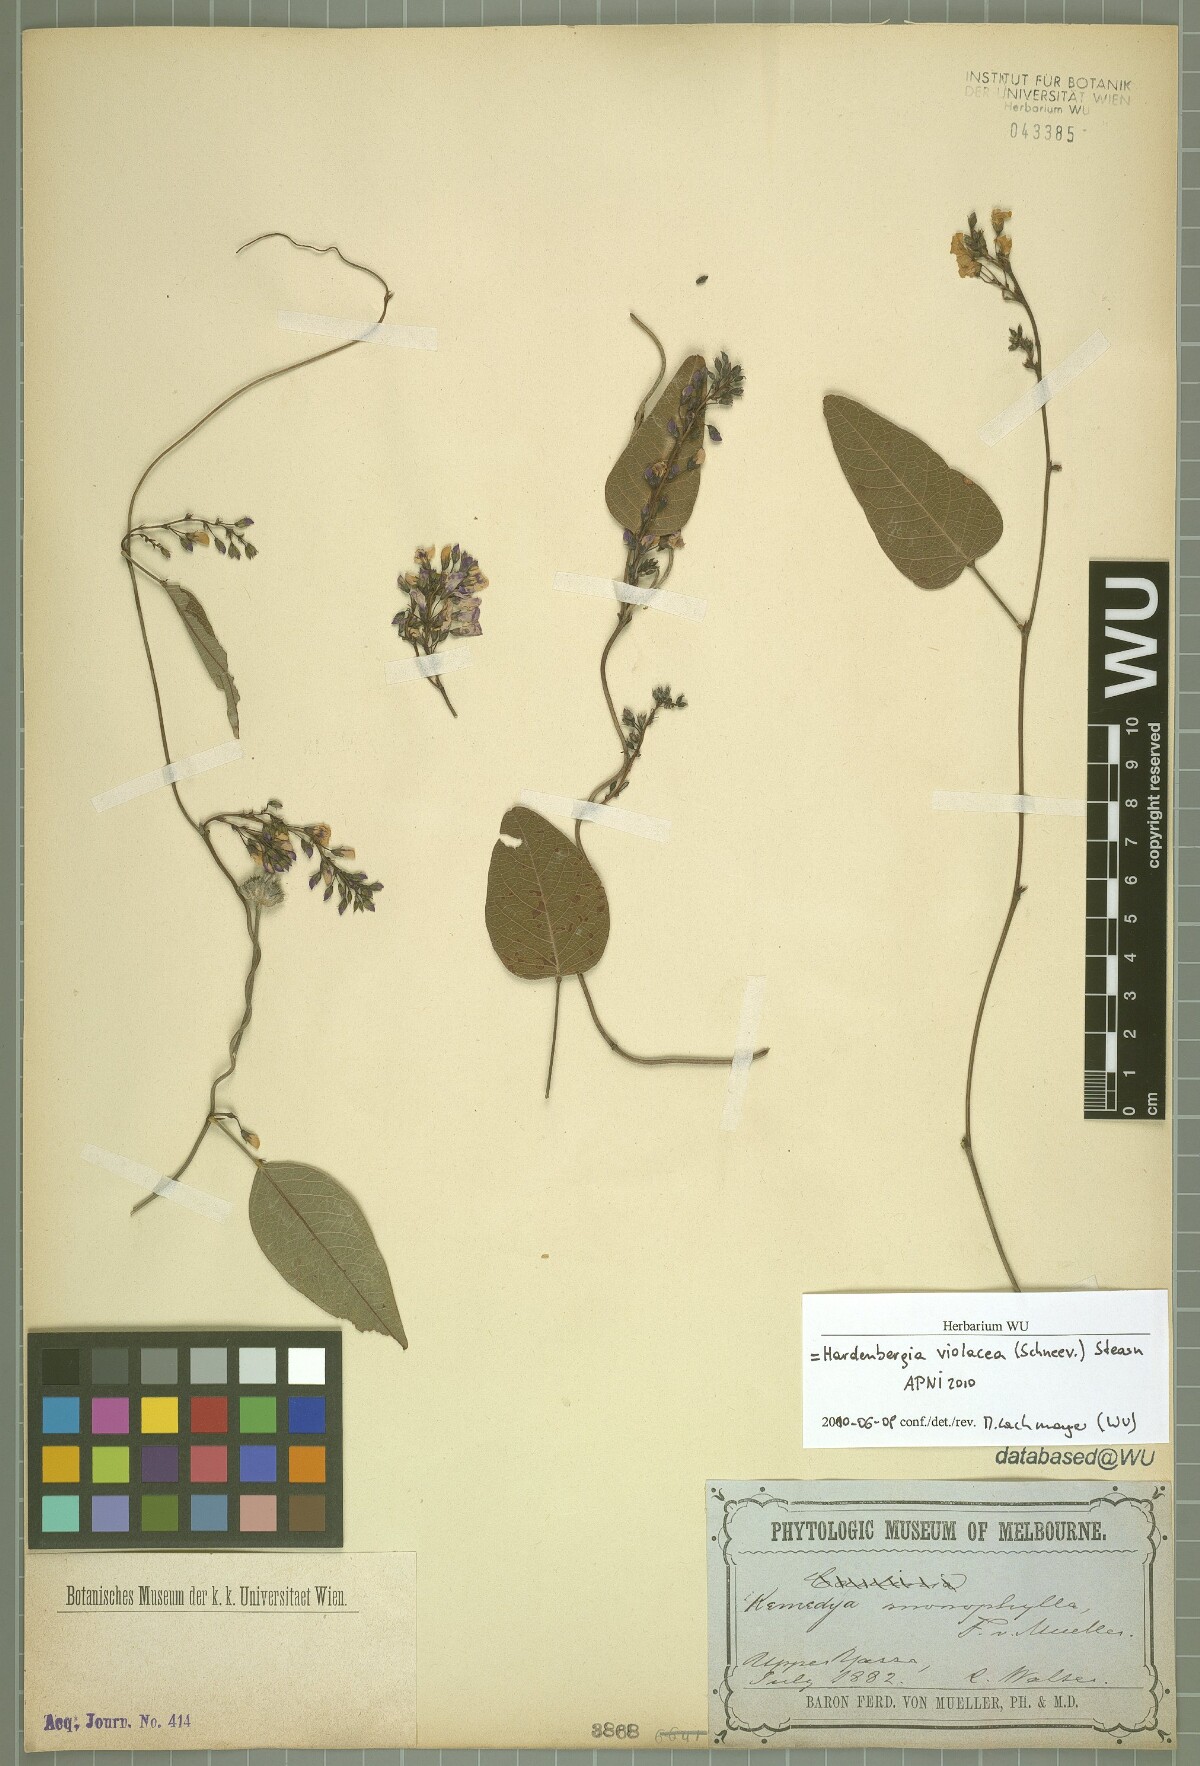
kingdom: Plantae
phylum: Tracheophyta
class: Magnoliopsida
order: Fabales
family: Fabaceae
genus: Hardenbergia
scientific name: Hardenbergia violacea
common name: Coral-pea
